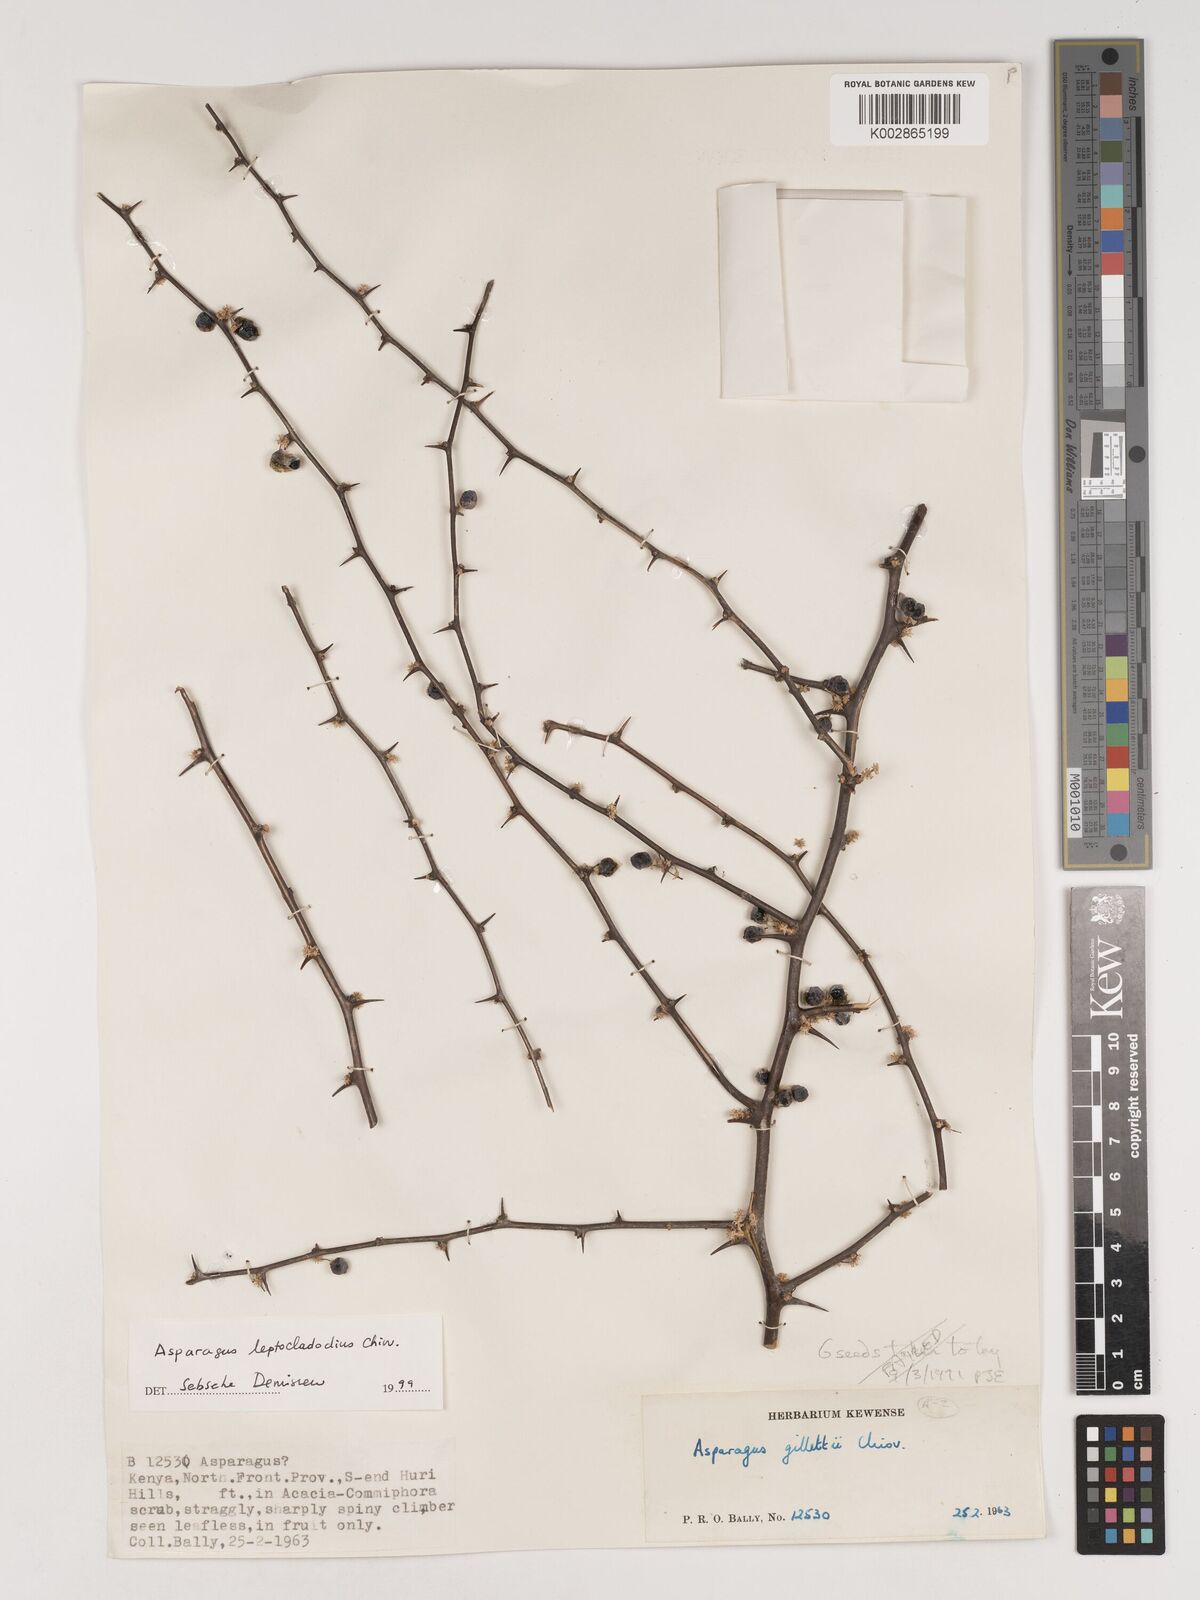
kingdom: Plantae
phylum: Tracheophyta
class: Liliopsida
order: Asparagales
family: Asparagaceae
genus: Asparagus
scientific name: Asparagus leptocladodius
